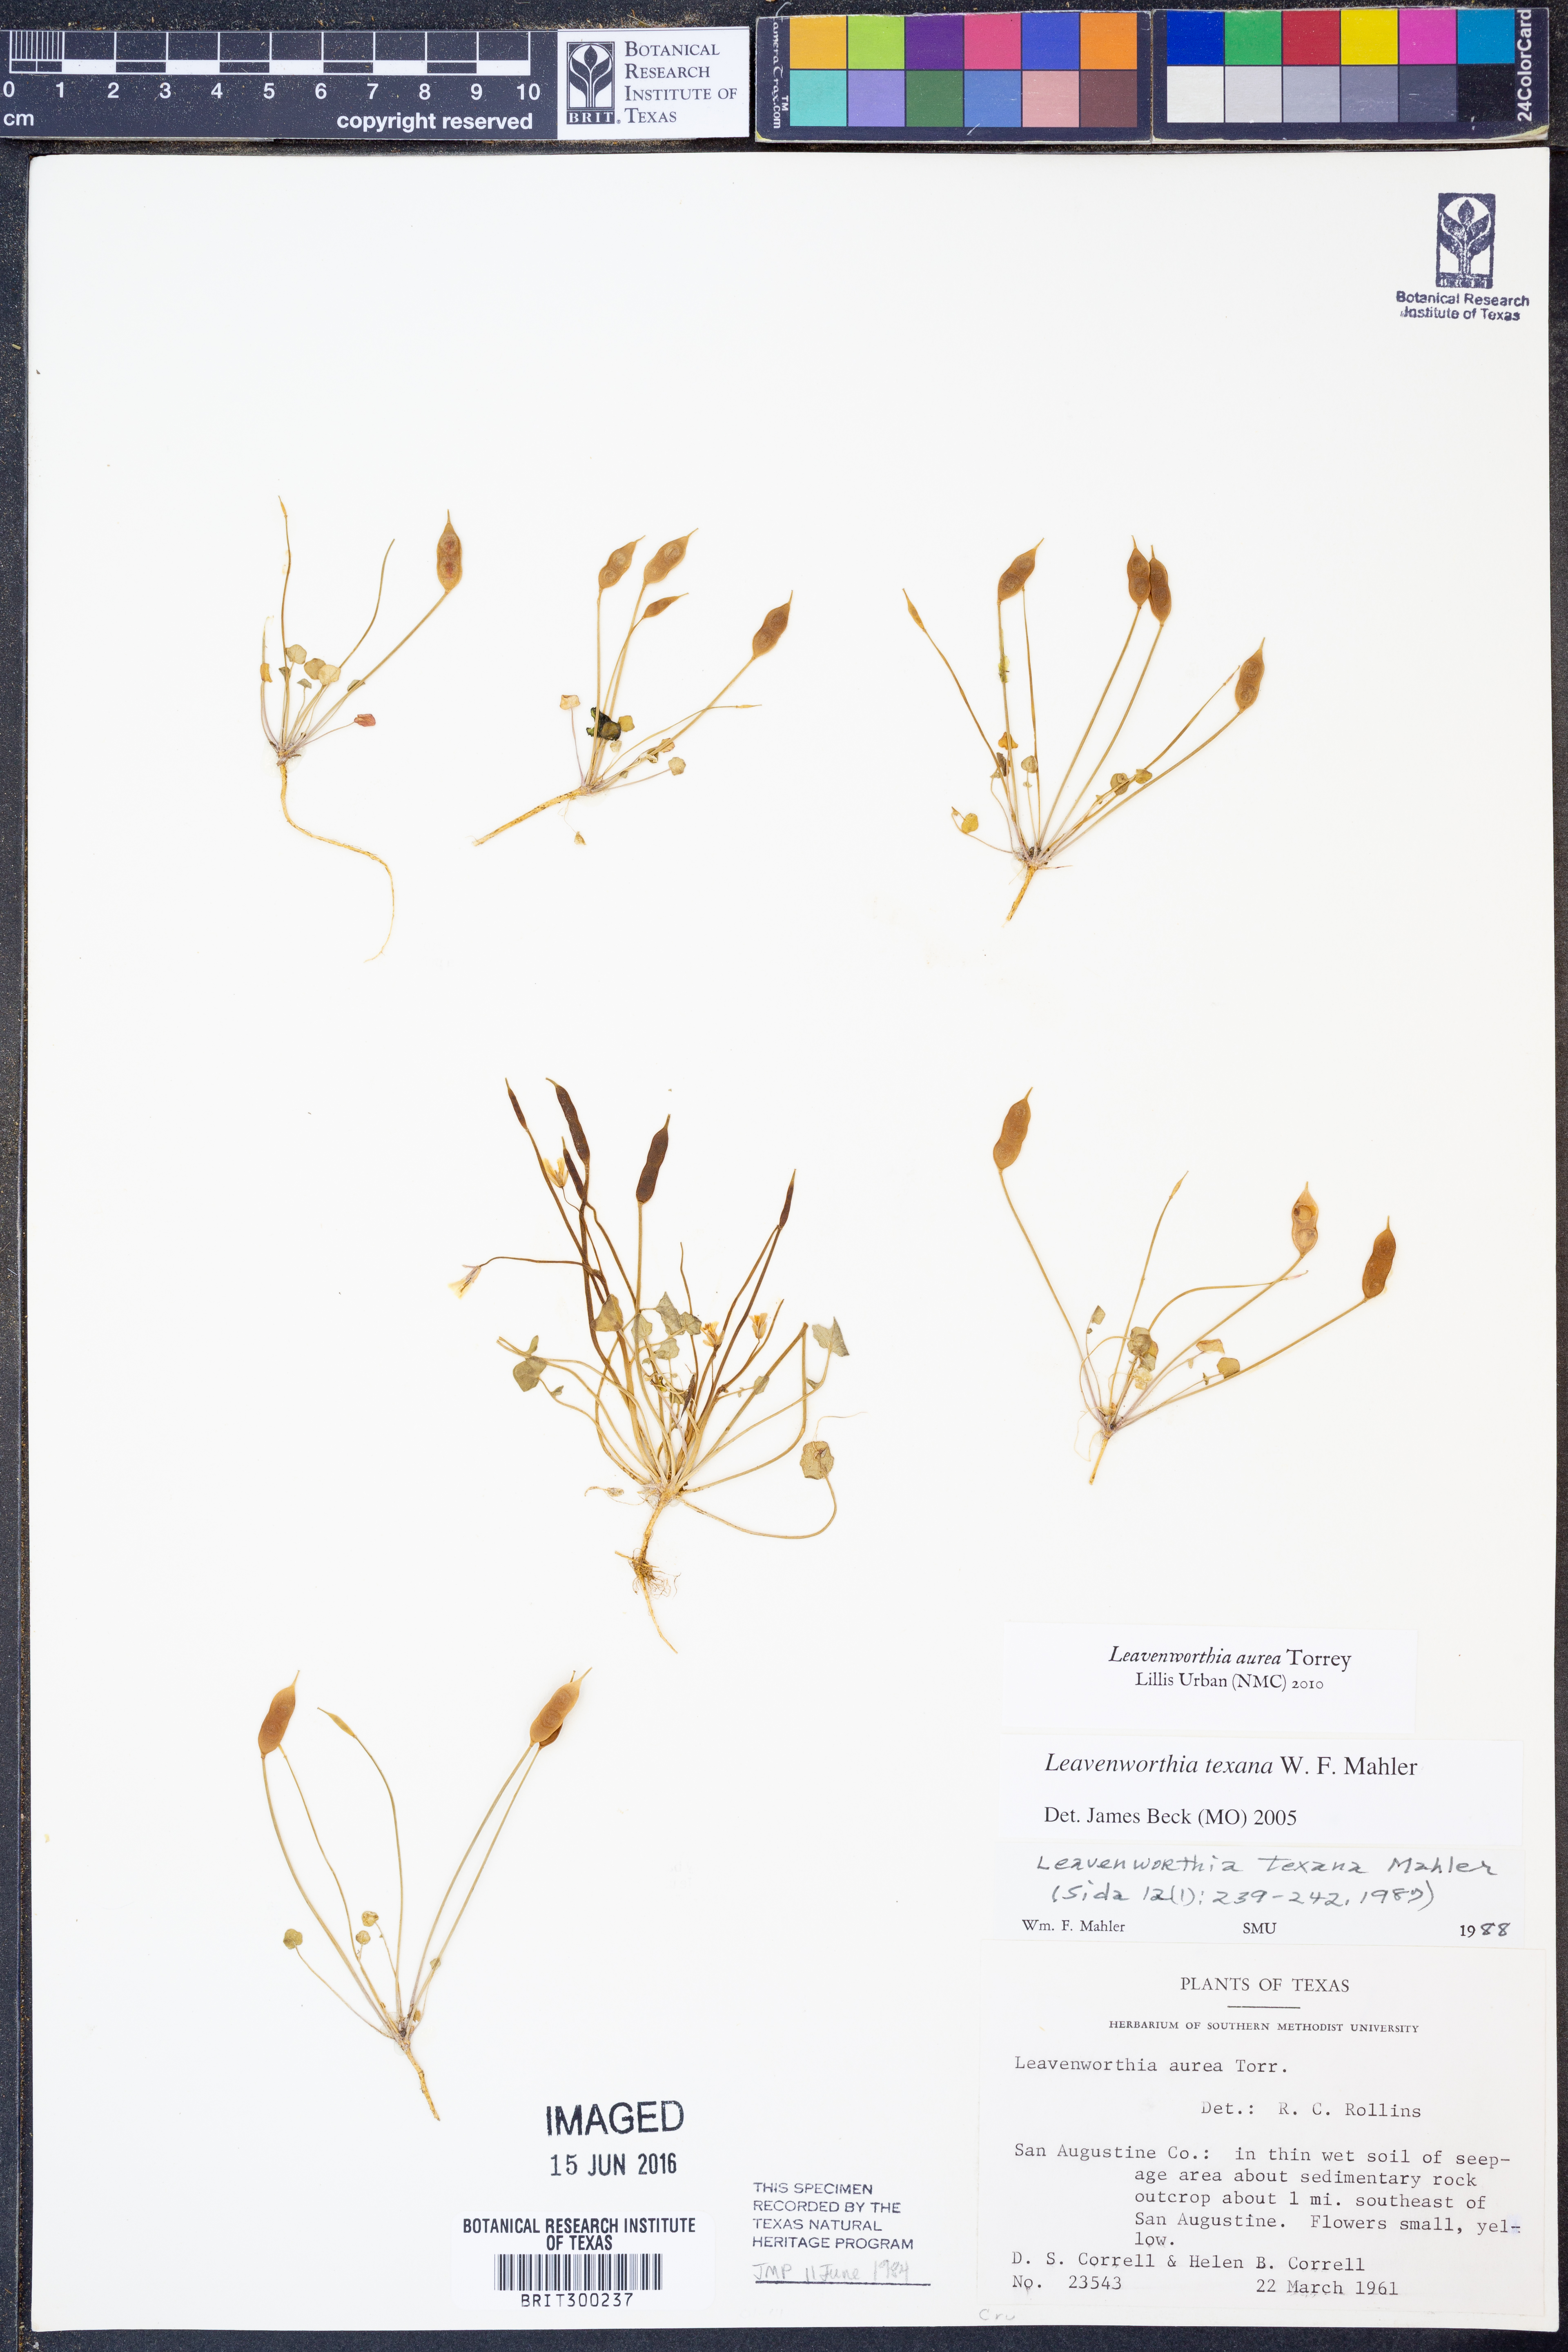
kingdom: Plantae
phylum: Tracheophyta
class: Magnoliopsida
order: Brassicales
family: Brassicaceae
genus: Leavenworthia
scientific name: Leavenworthia aurea
